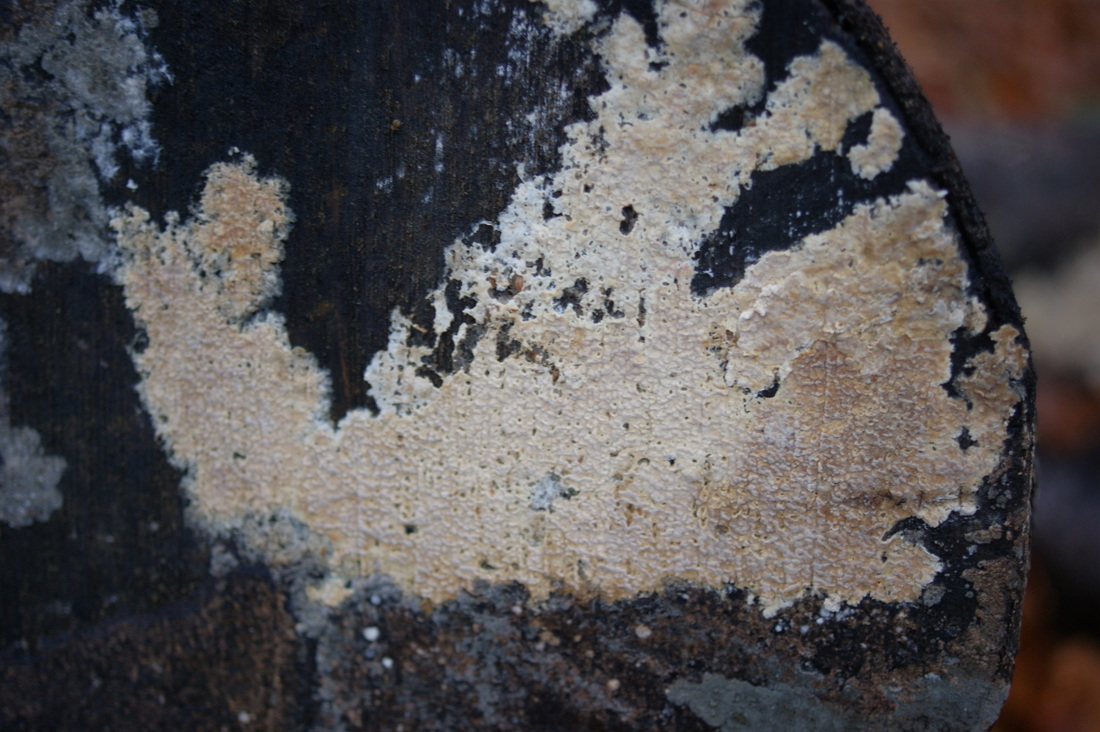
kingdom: Fungi
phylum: Basidiomycota
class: Agaricomycetes
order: Agaricales
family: Physalacriaceae
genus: Cylindrobasidium
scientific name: Cylindrobasidium evolvens
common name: sprækkehinde
